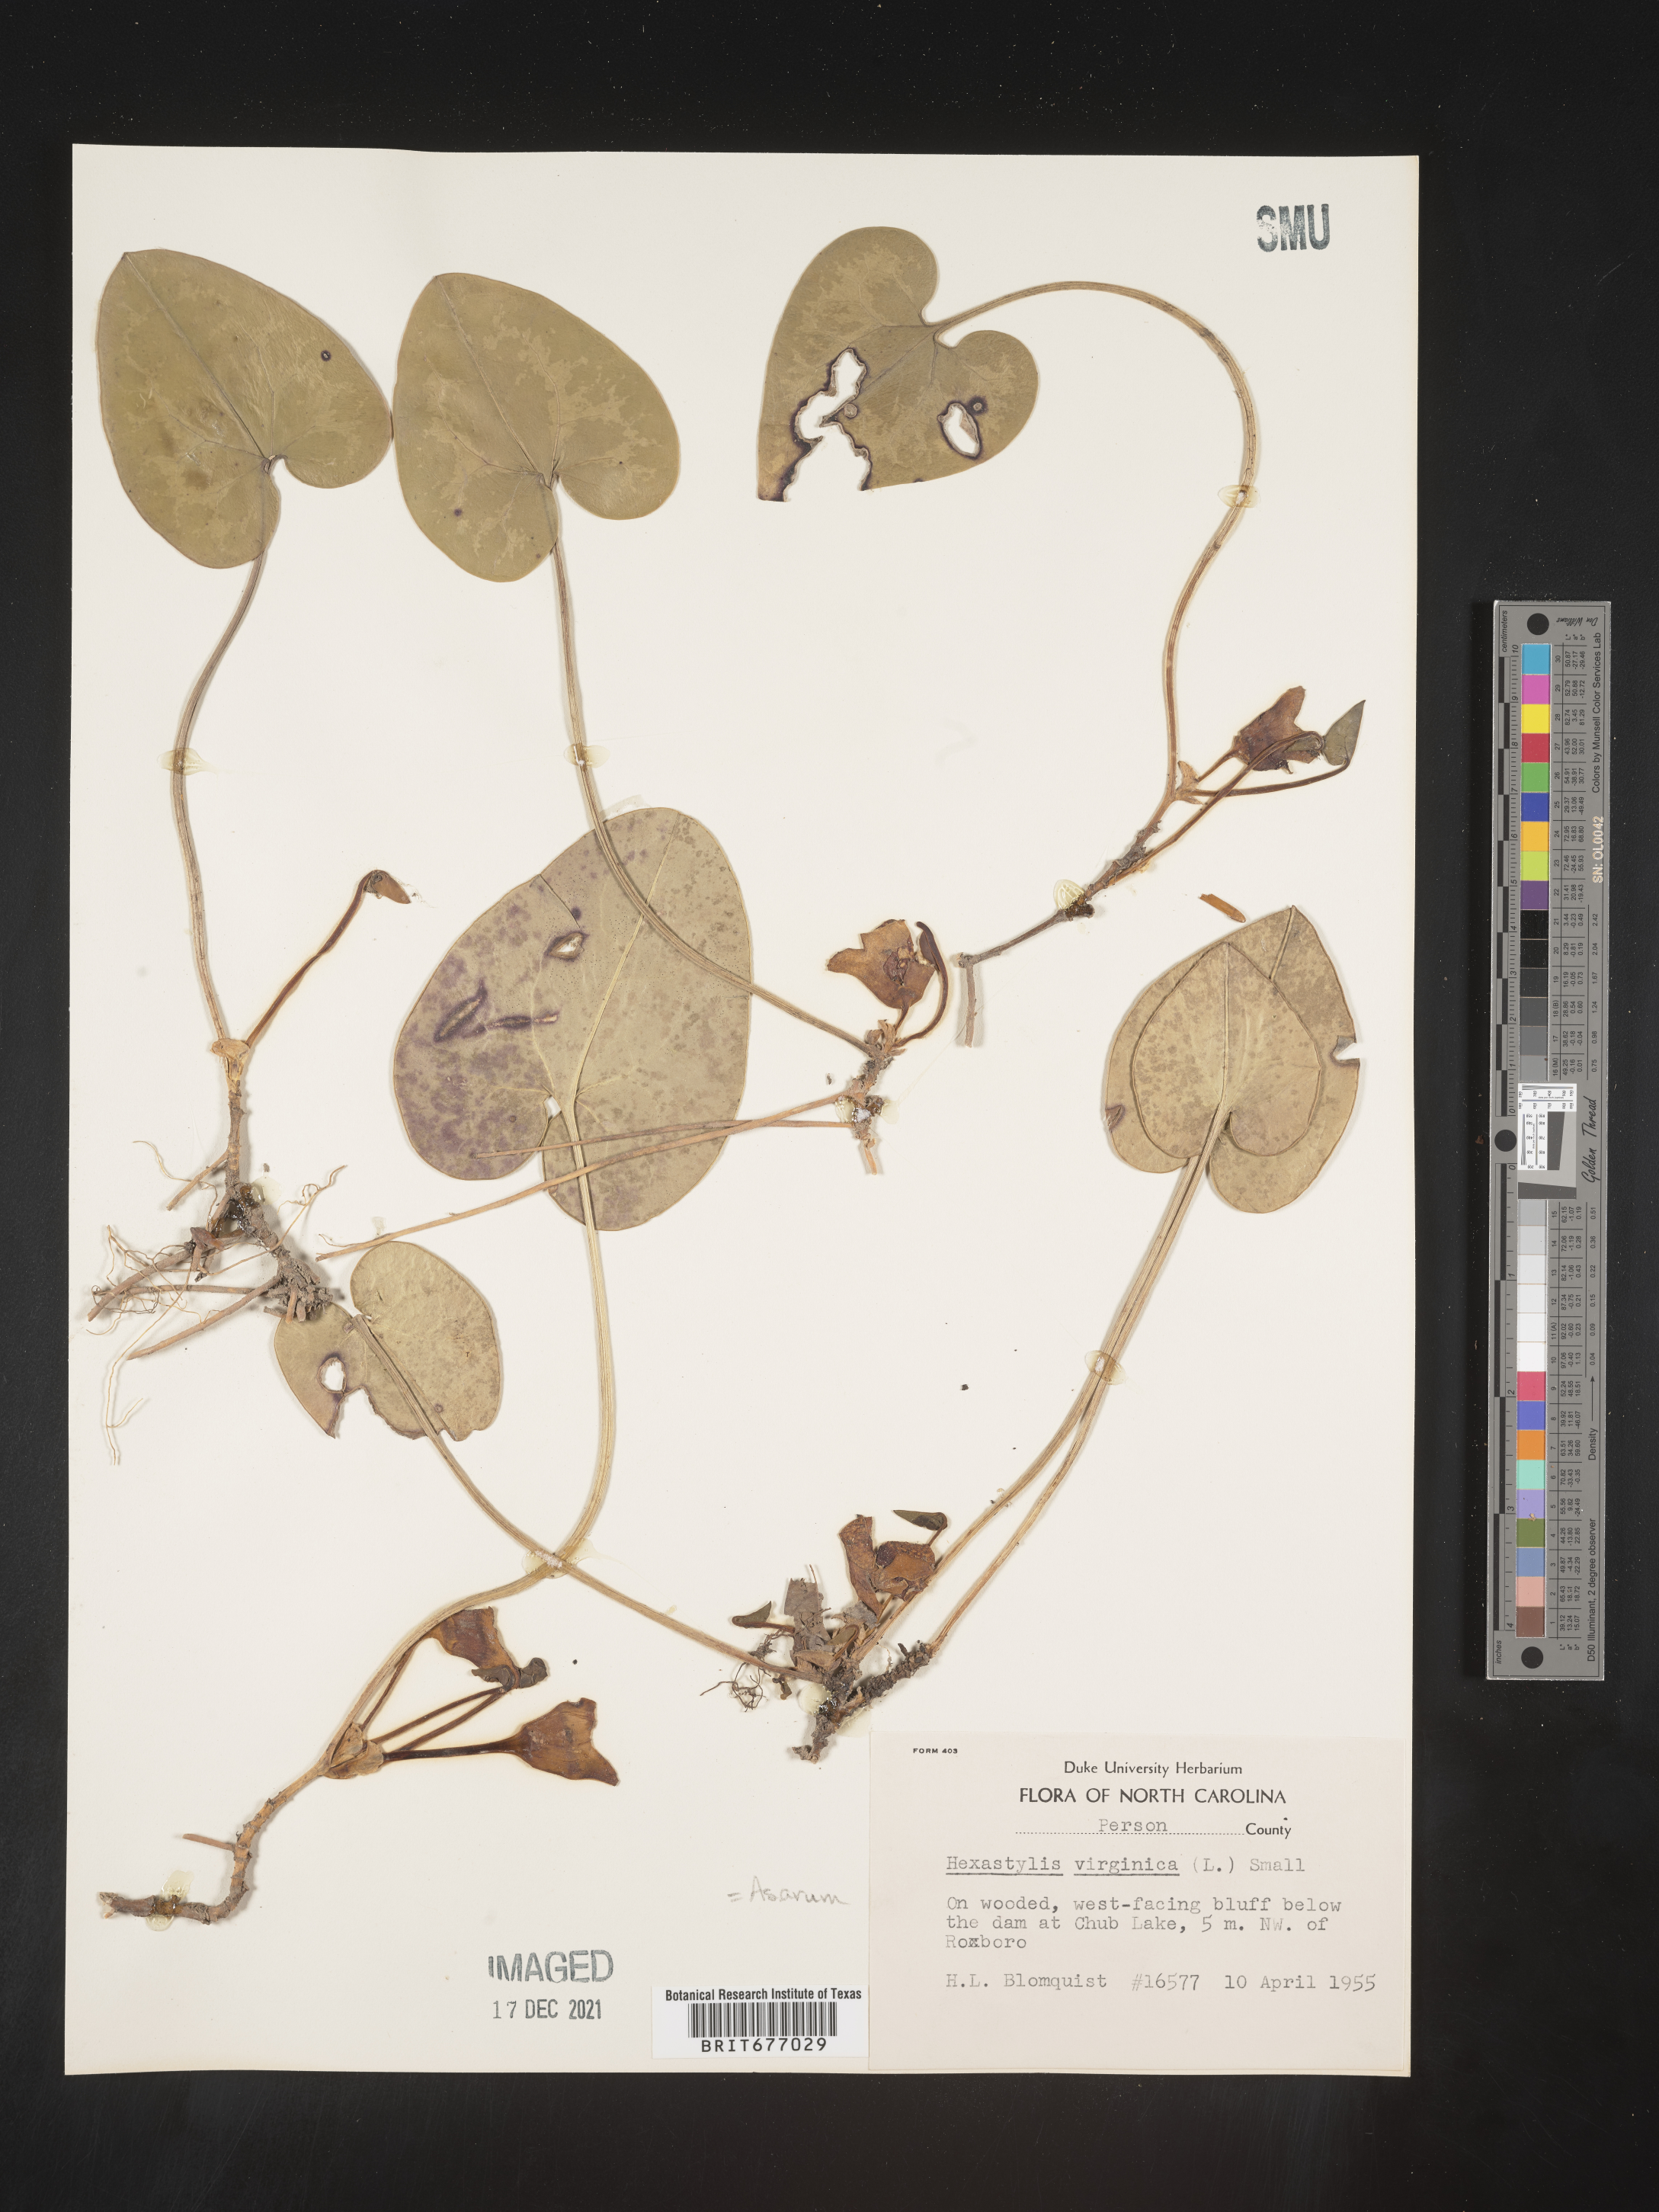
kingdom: Plantae
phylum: Tracheophyta
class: Magnoliopsida
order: Piperales
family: Aristolochiaceae
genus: Asarum
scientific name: Asarum
